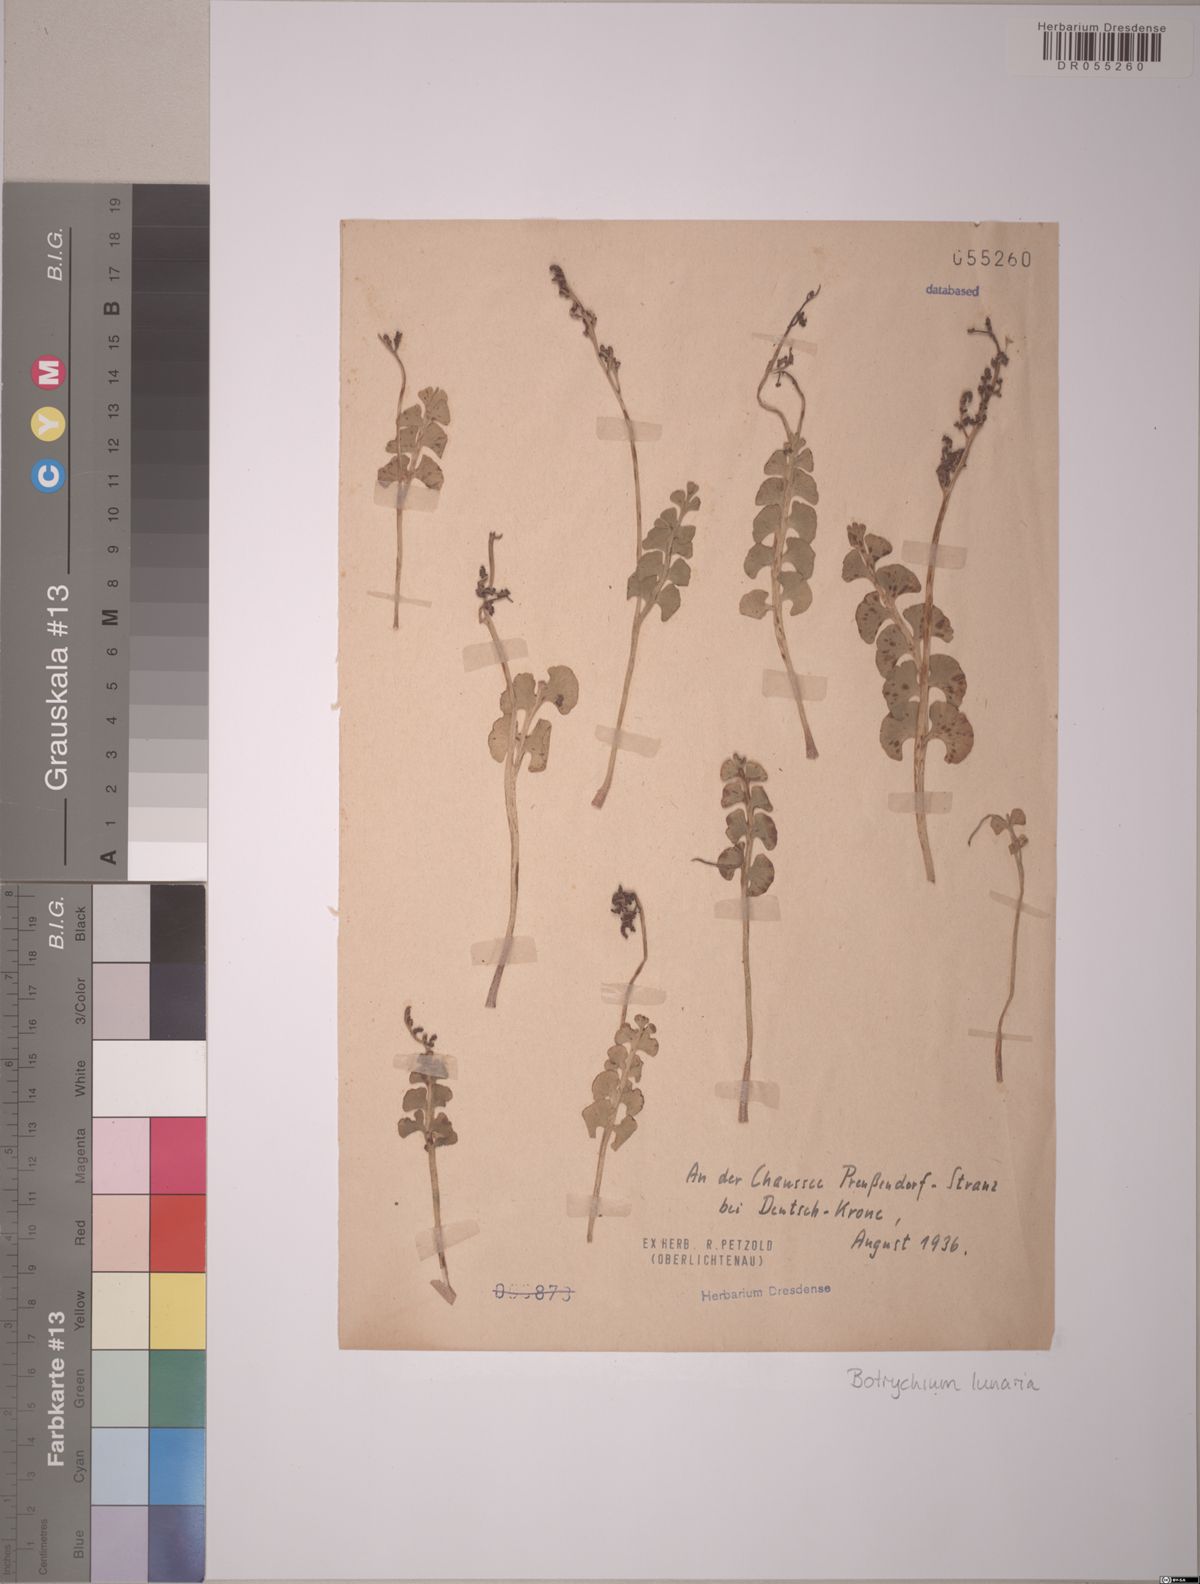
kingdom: Plantae
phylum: Tracheophyta
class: Polypodiopsida
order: Ophioglossales
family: Ophioglossaceae
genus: Botrychium
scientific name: Botrychium lunaria
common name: Moonwort
